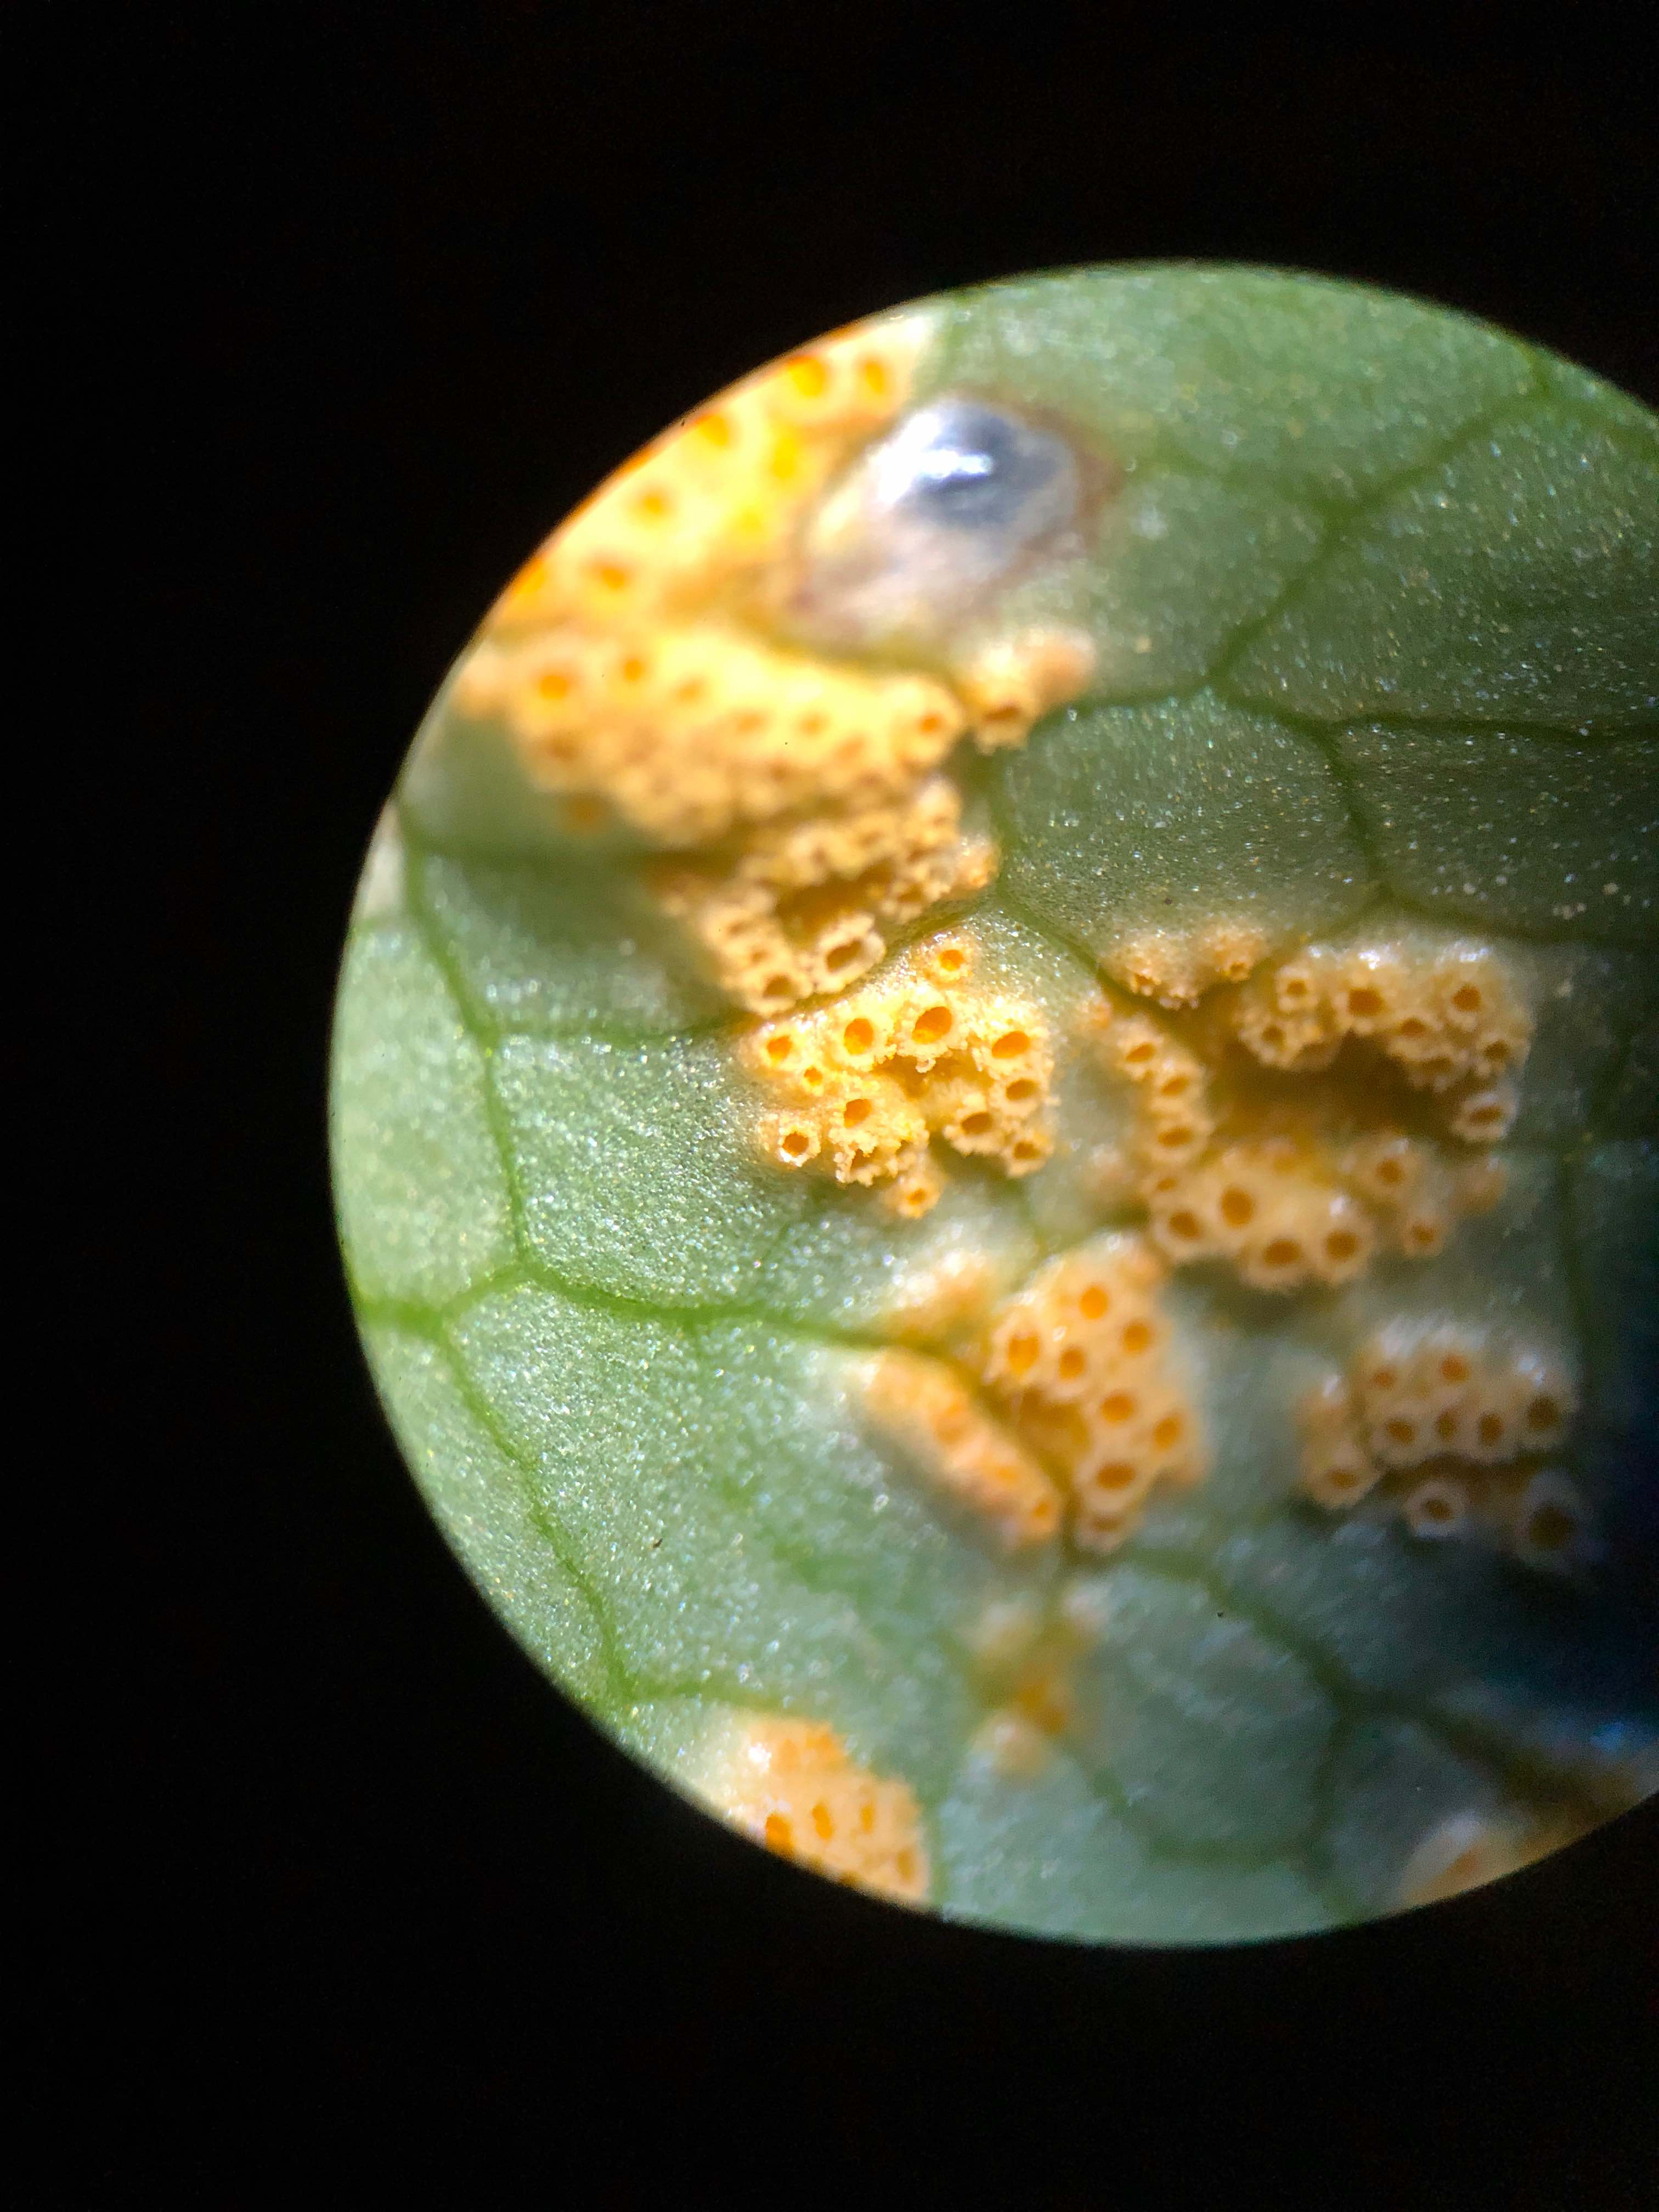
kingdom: Fungi
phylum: Basidiomycota
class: Pucciniomycetes
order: Pucciniales
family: Pucciniaceae
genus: Uromyces
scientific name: Uromyces dactylidis
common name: ranunkel-encellerust
